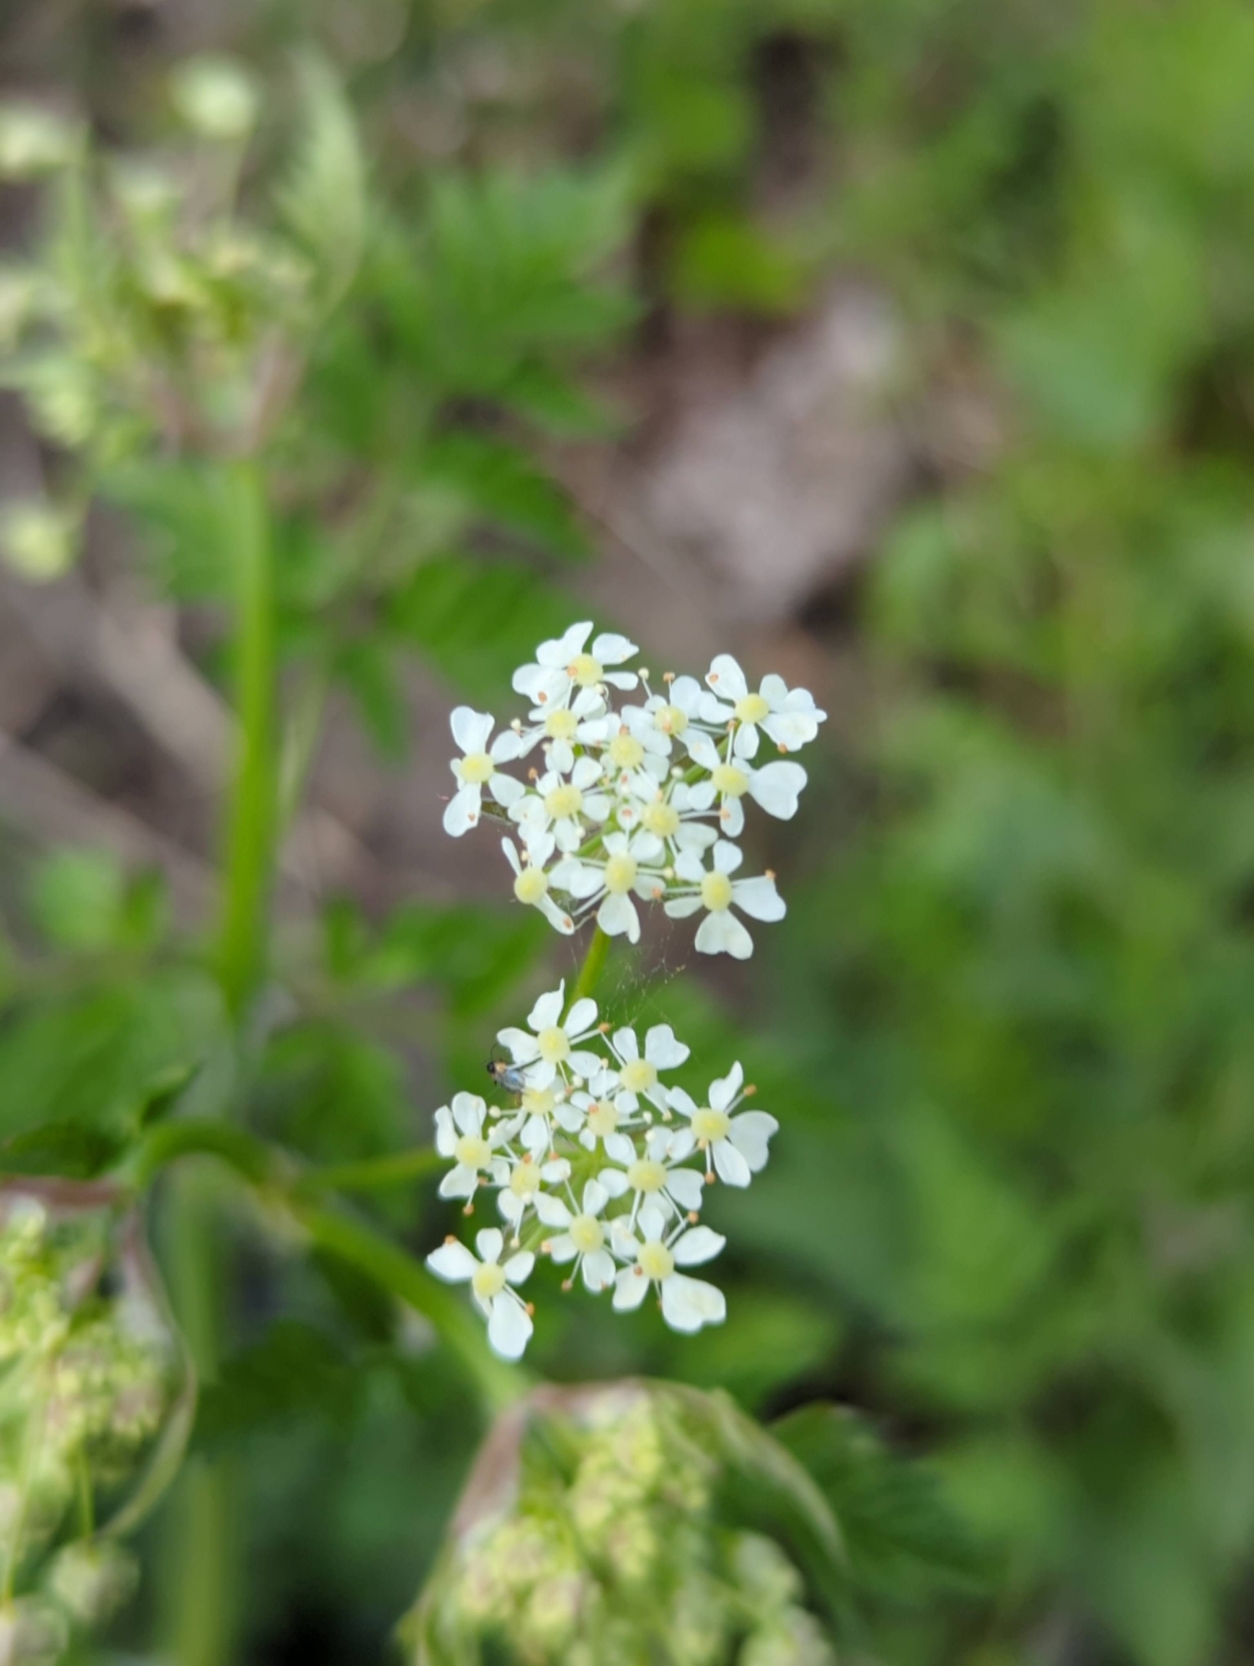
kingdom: Plantae
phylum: Tracheophyta
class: Magnoliopsida
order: Apiales
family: Apiaceae
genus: Anthriscus
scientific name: Anthriscus sylvestris
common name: Vild kørvel
